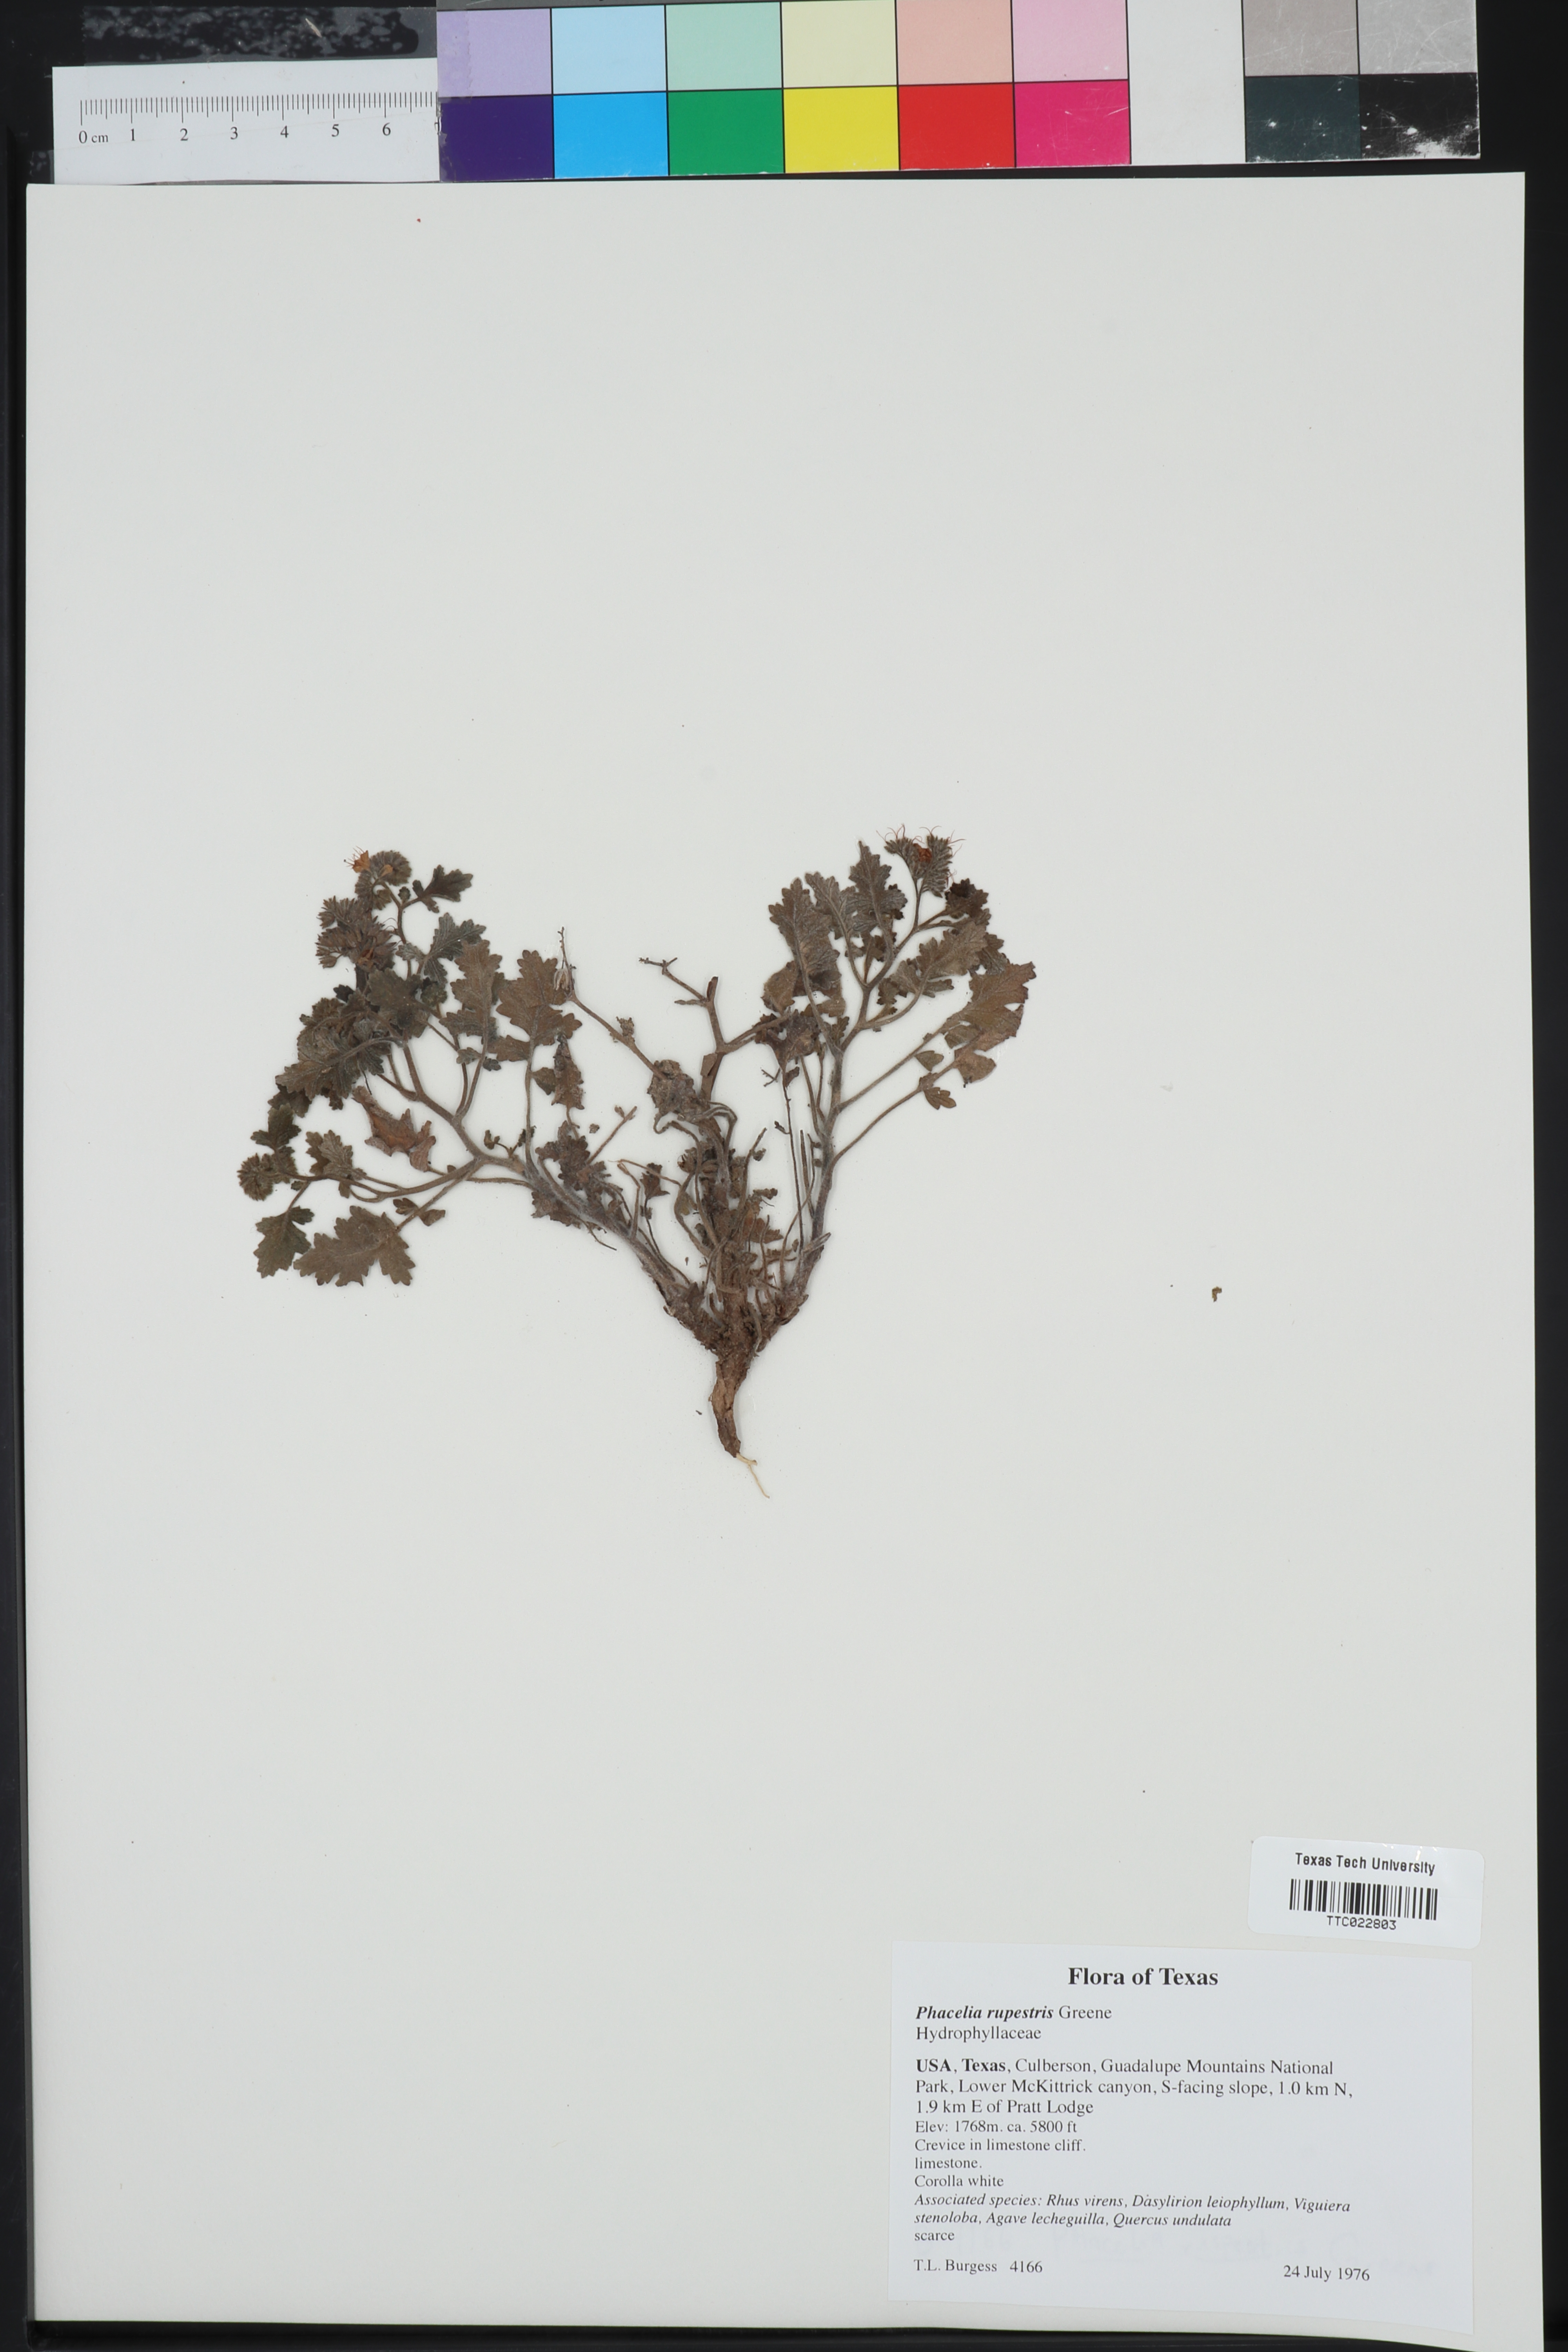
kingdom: Plantae
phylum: Tracheophyta
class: Magnoliopsida
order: Boraginales
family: Hydrophyllaceae
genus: Phacelia
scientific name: Phacelia rupestris
